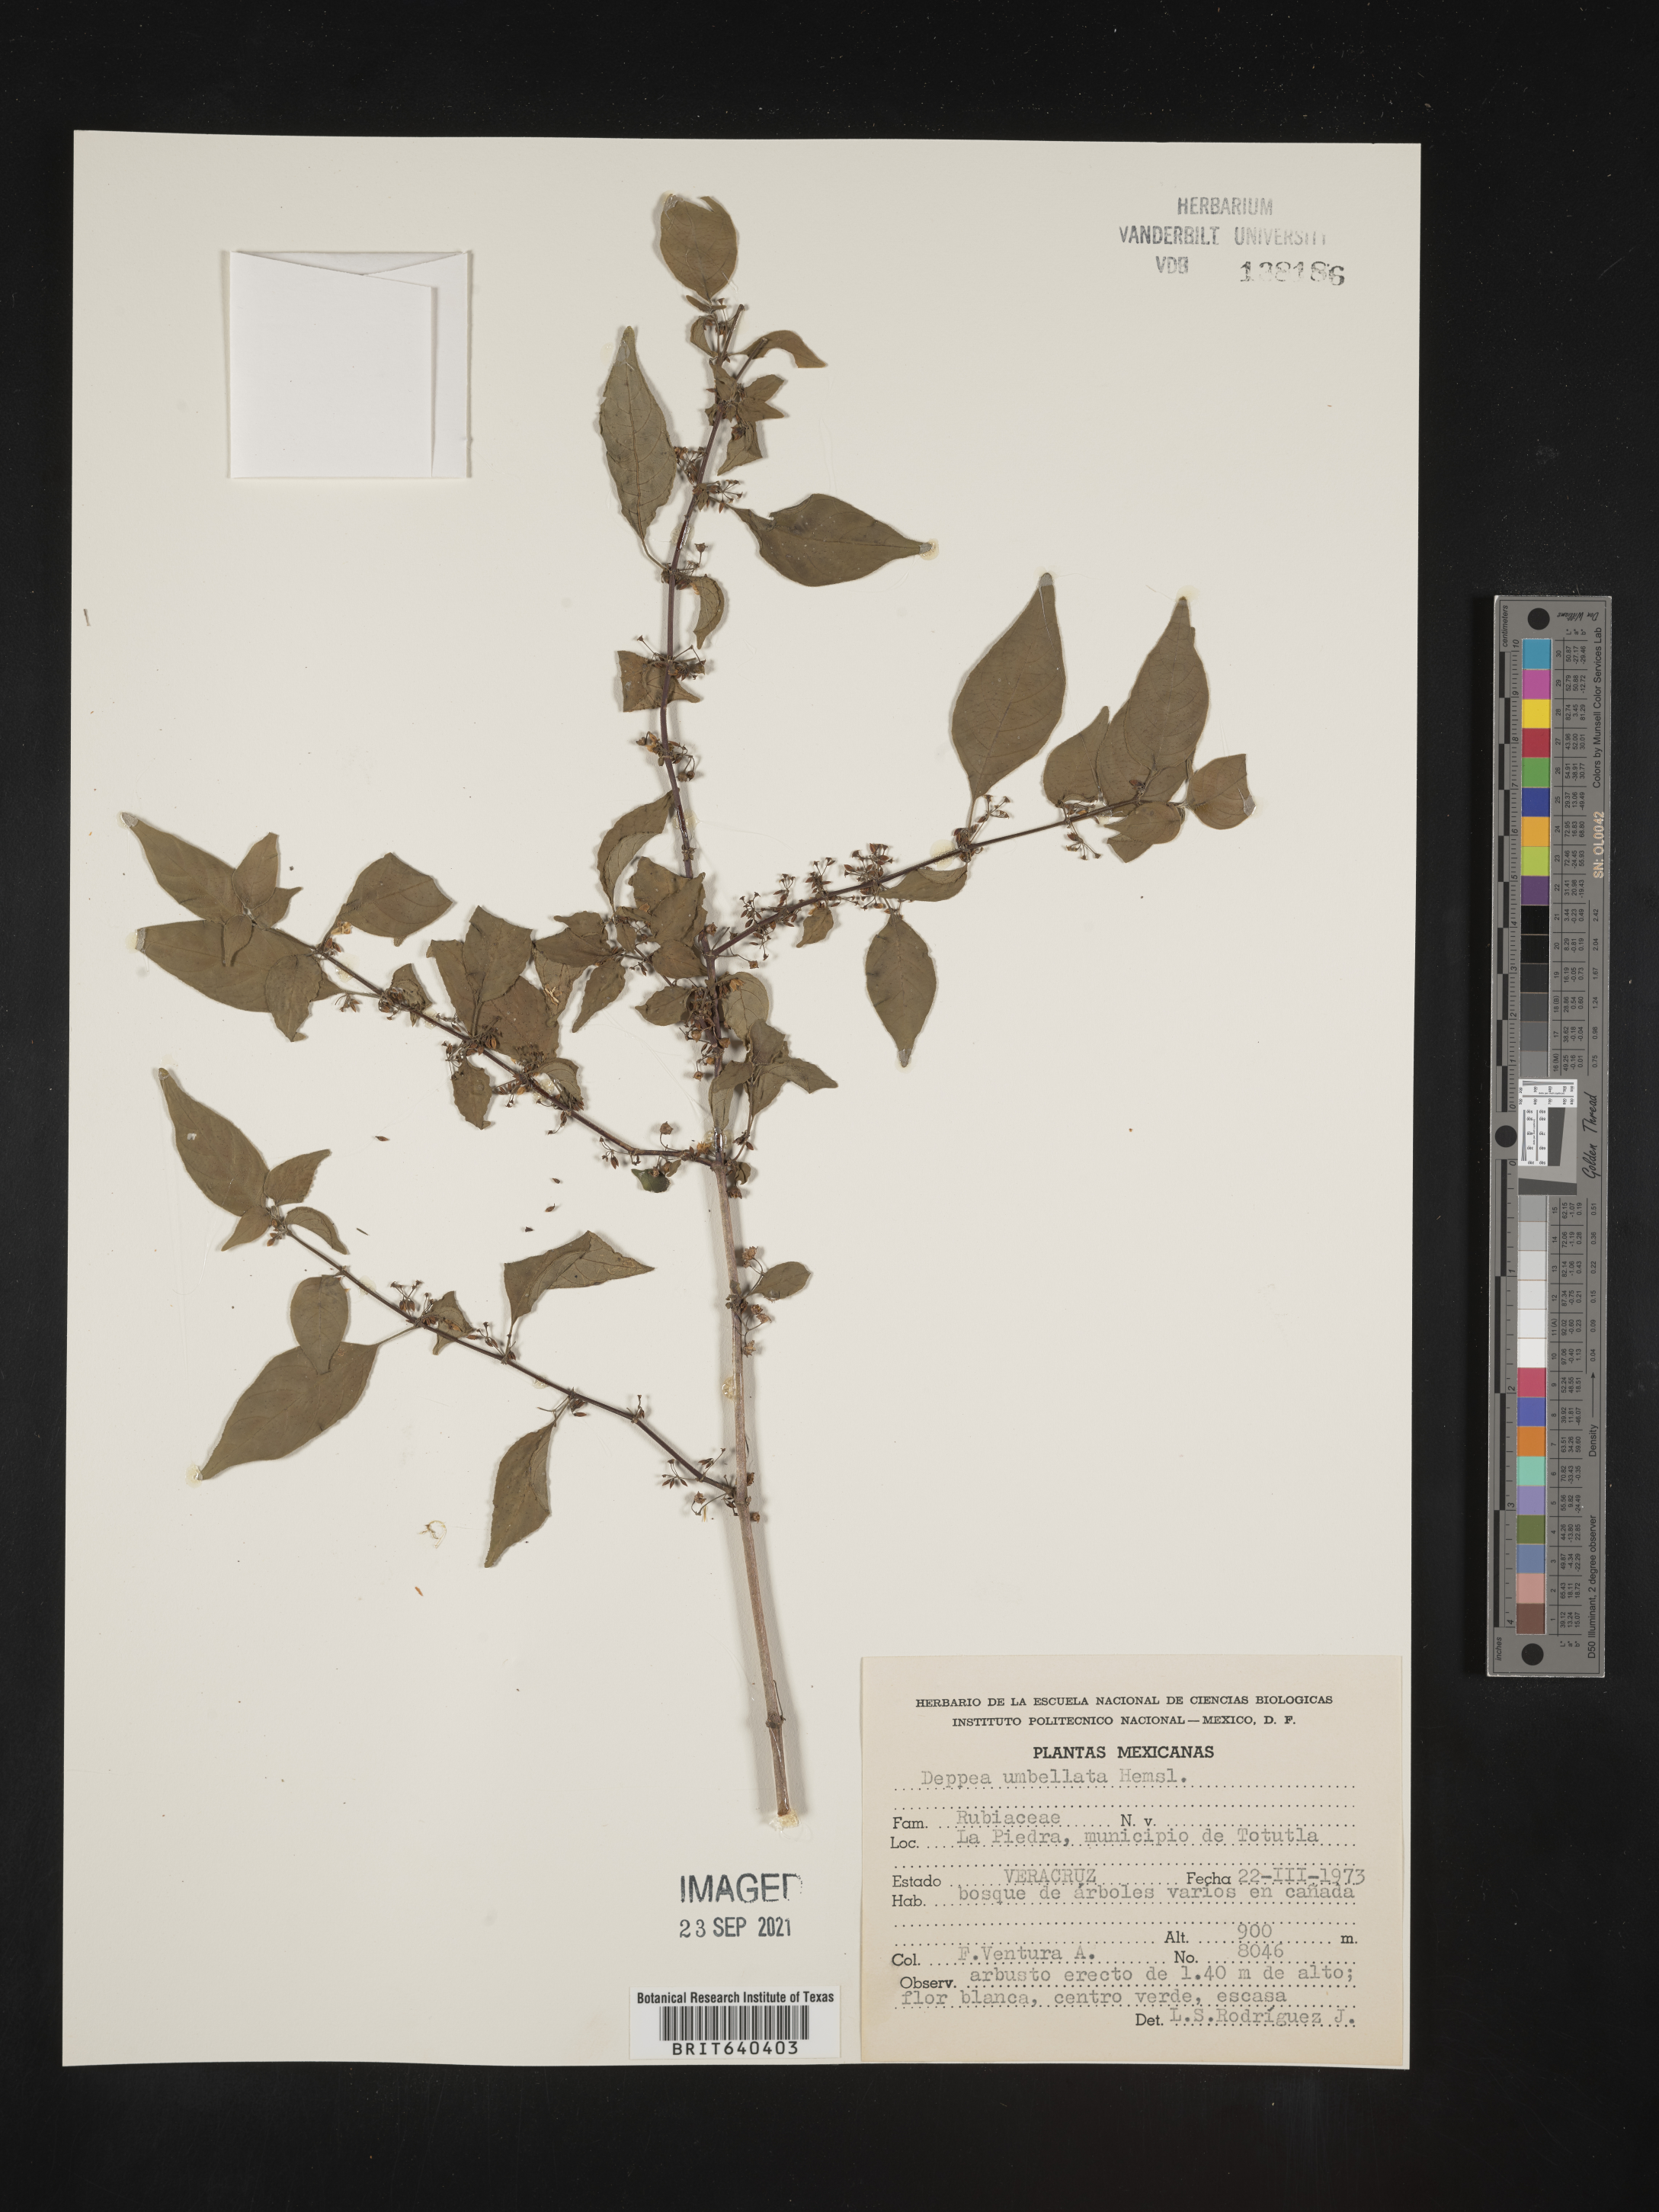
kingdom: Plantae
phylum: Tracheophyta
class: Magnoliopsida
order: Gentianales
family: Rubiaceae
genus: Deppea
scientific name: Deppea
